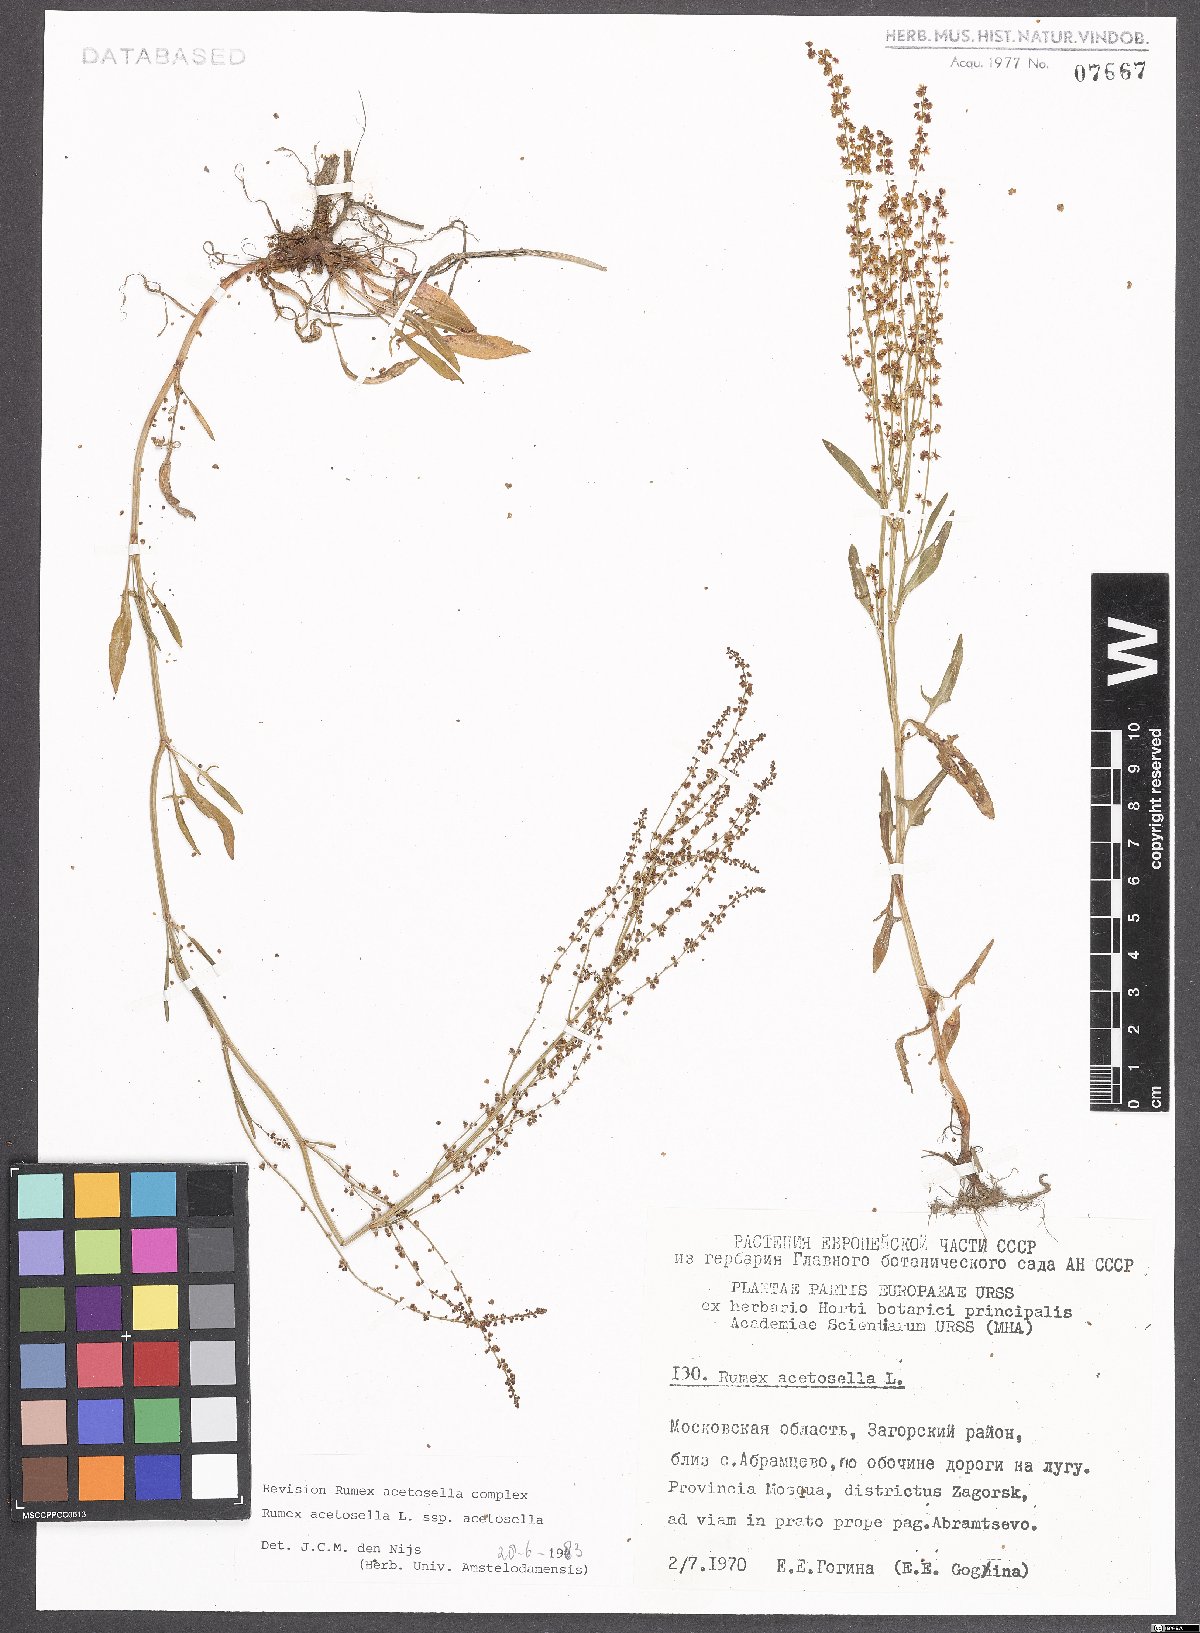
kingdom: Plantae
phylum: Tracheophyta
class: Magnoliopsida
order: Caryophyllales
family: Polygonaceae
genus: Rumex
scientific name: Rumex acetosella
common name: Common sheep sorrel
